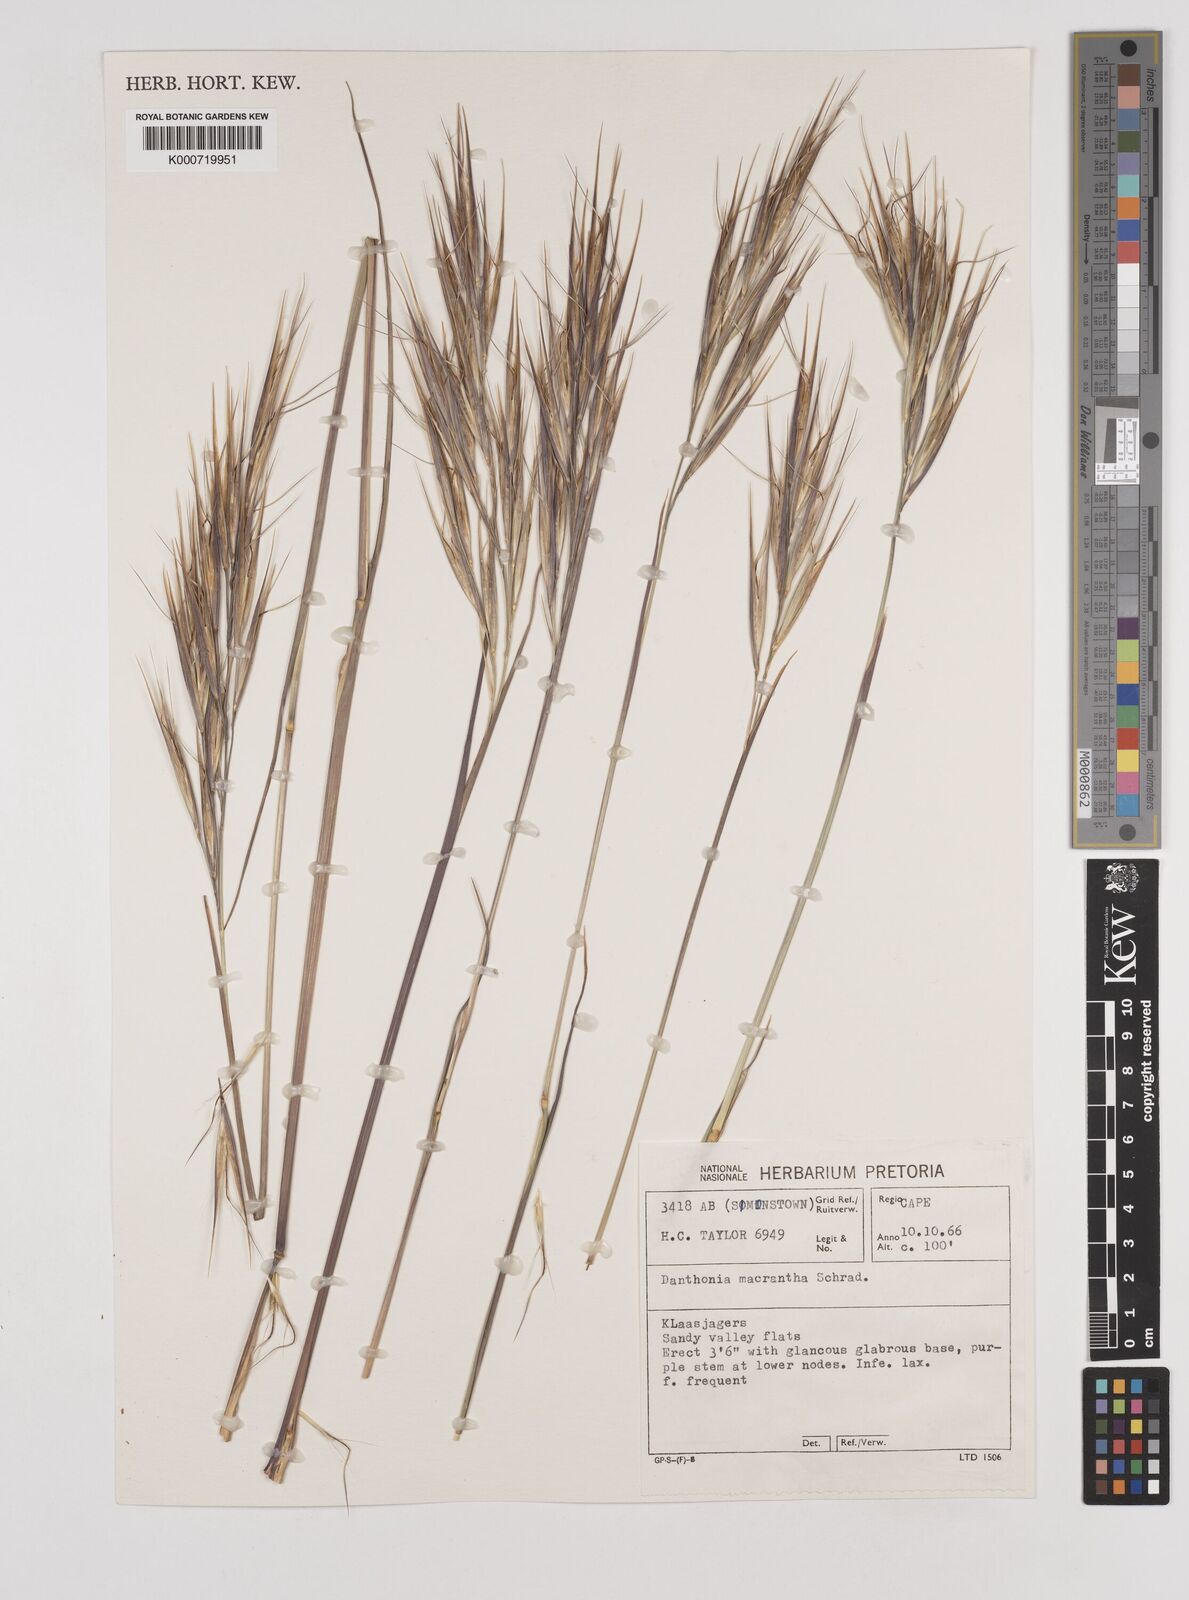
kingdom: Plantae
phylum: Tracheophyta
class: Liliopsida
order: Poales
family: Poaceae
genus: Pseudopentameris
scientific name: Pseudopentameris macrantha
